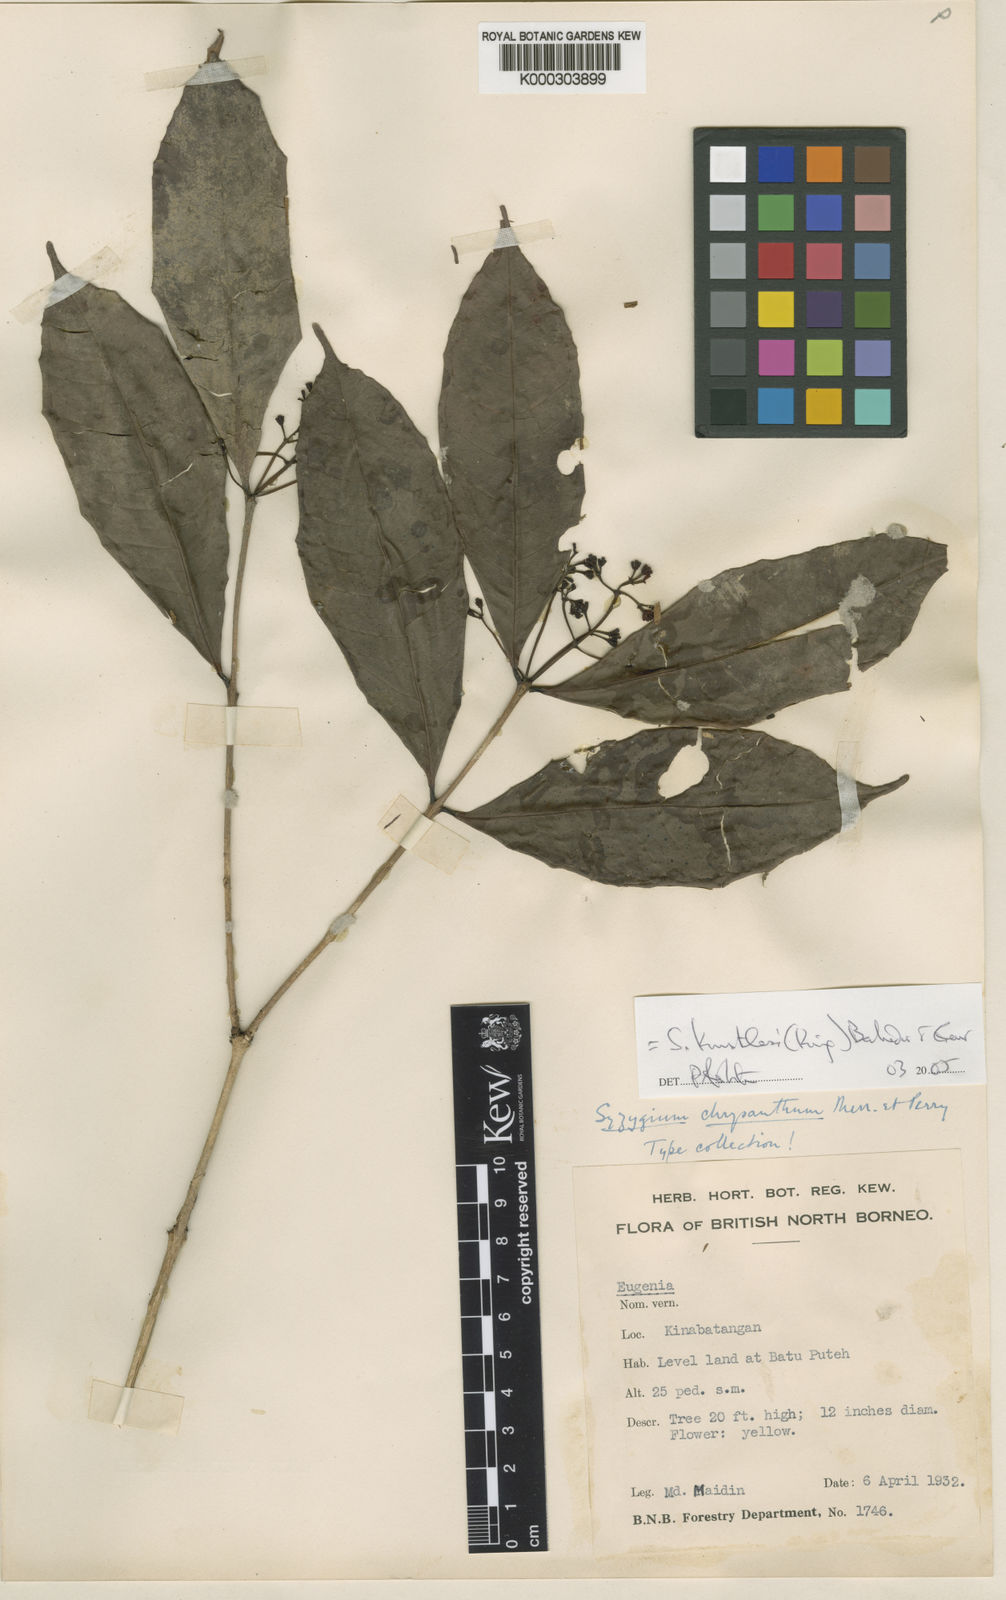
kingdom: Plantae
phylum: Tracheophyta
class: Magnoliopsida
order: Myrtales
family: Myrtaceae
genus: Syzygium
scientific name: Syzygium kunstleri
